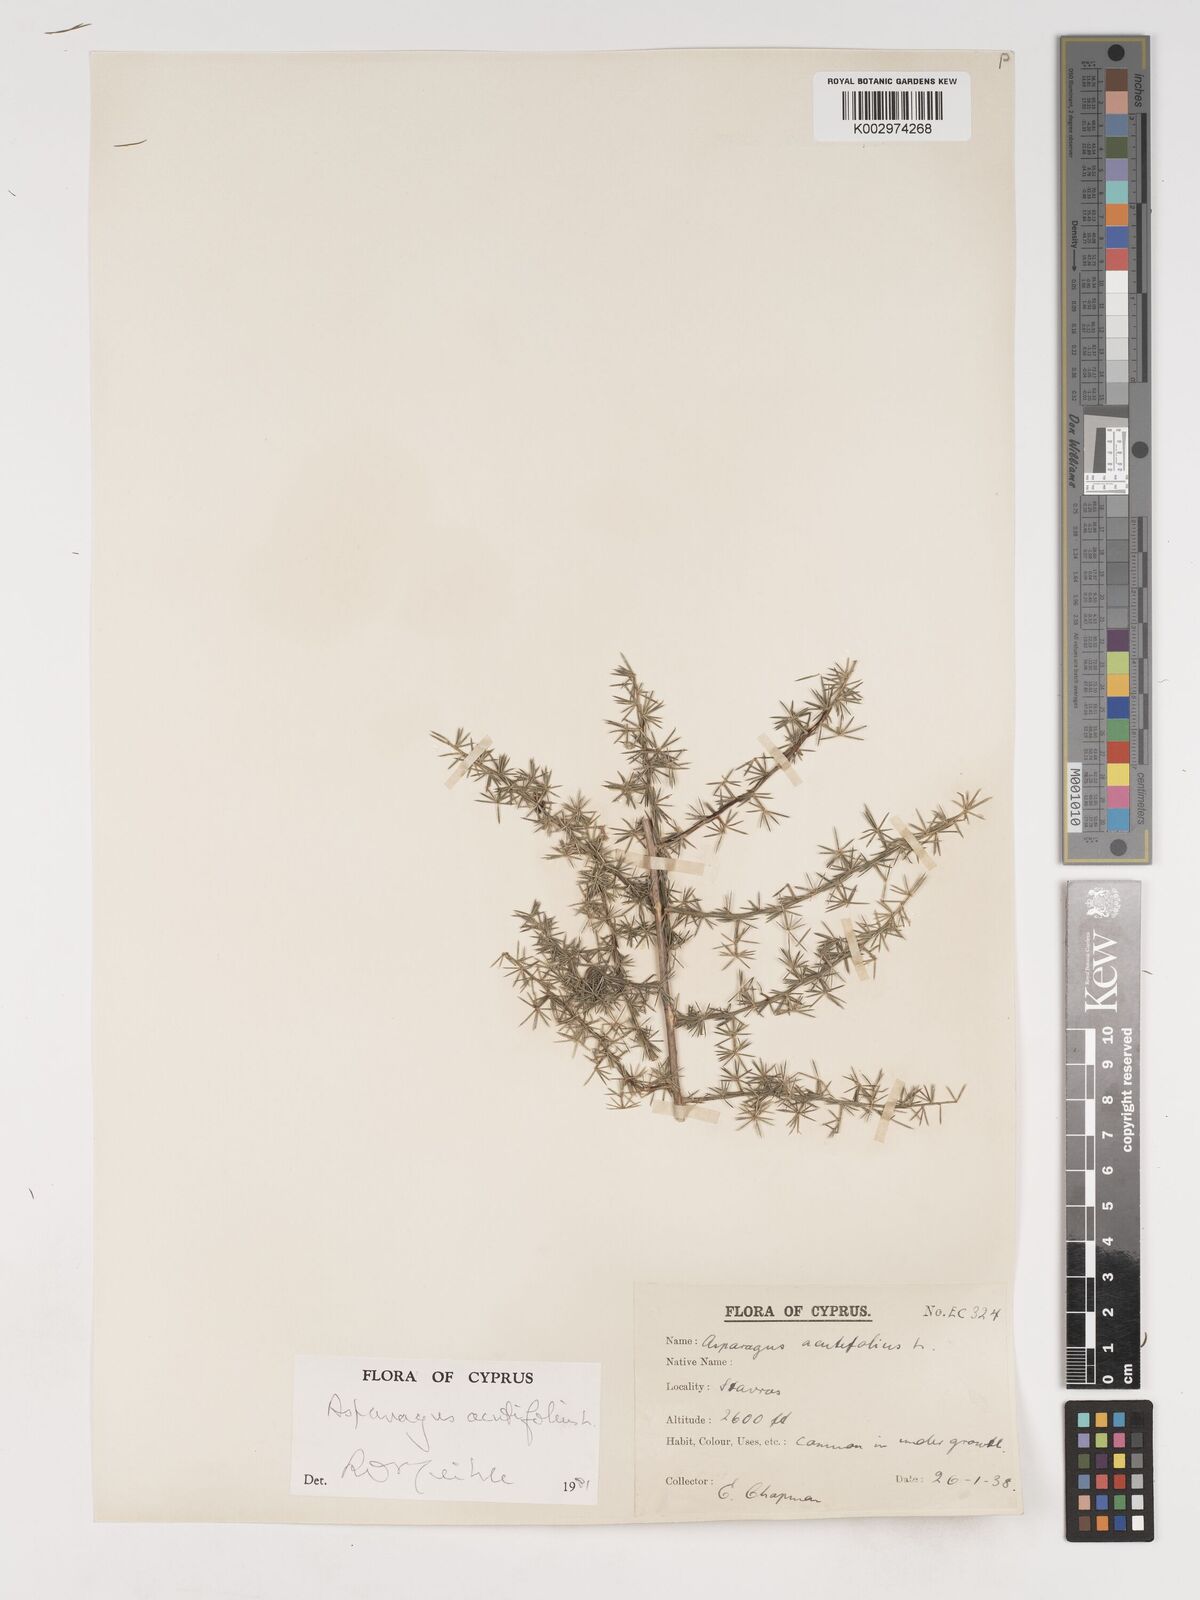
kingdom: Plantae
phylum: Tracheophyta
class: Liliopsida
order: Asparagales
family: Asparagaceae
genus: Asparagus
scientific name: Asparagus acutifolius
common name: Wild asparagus
